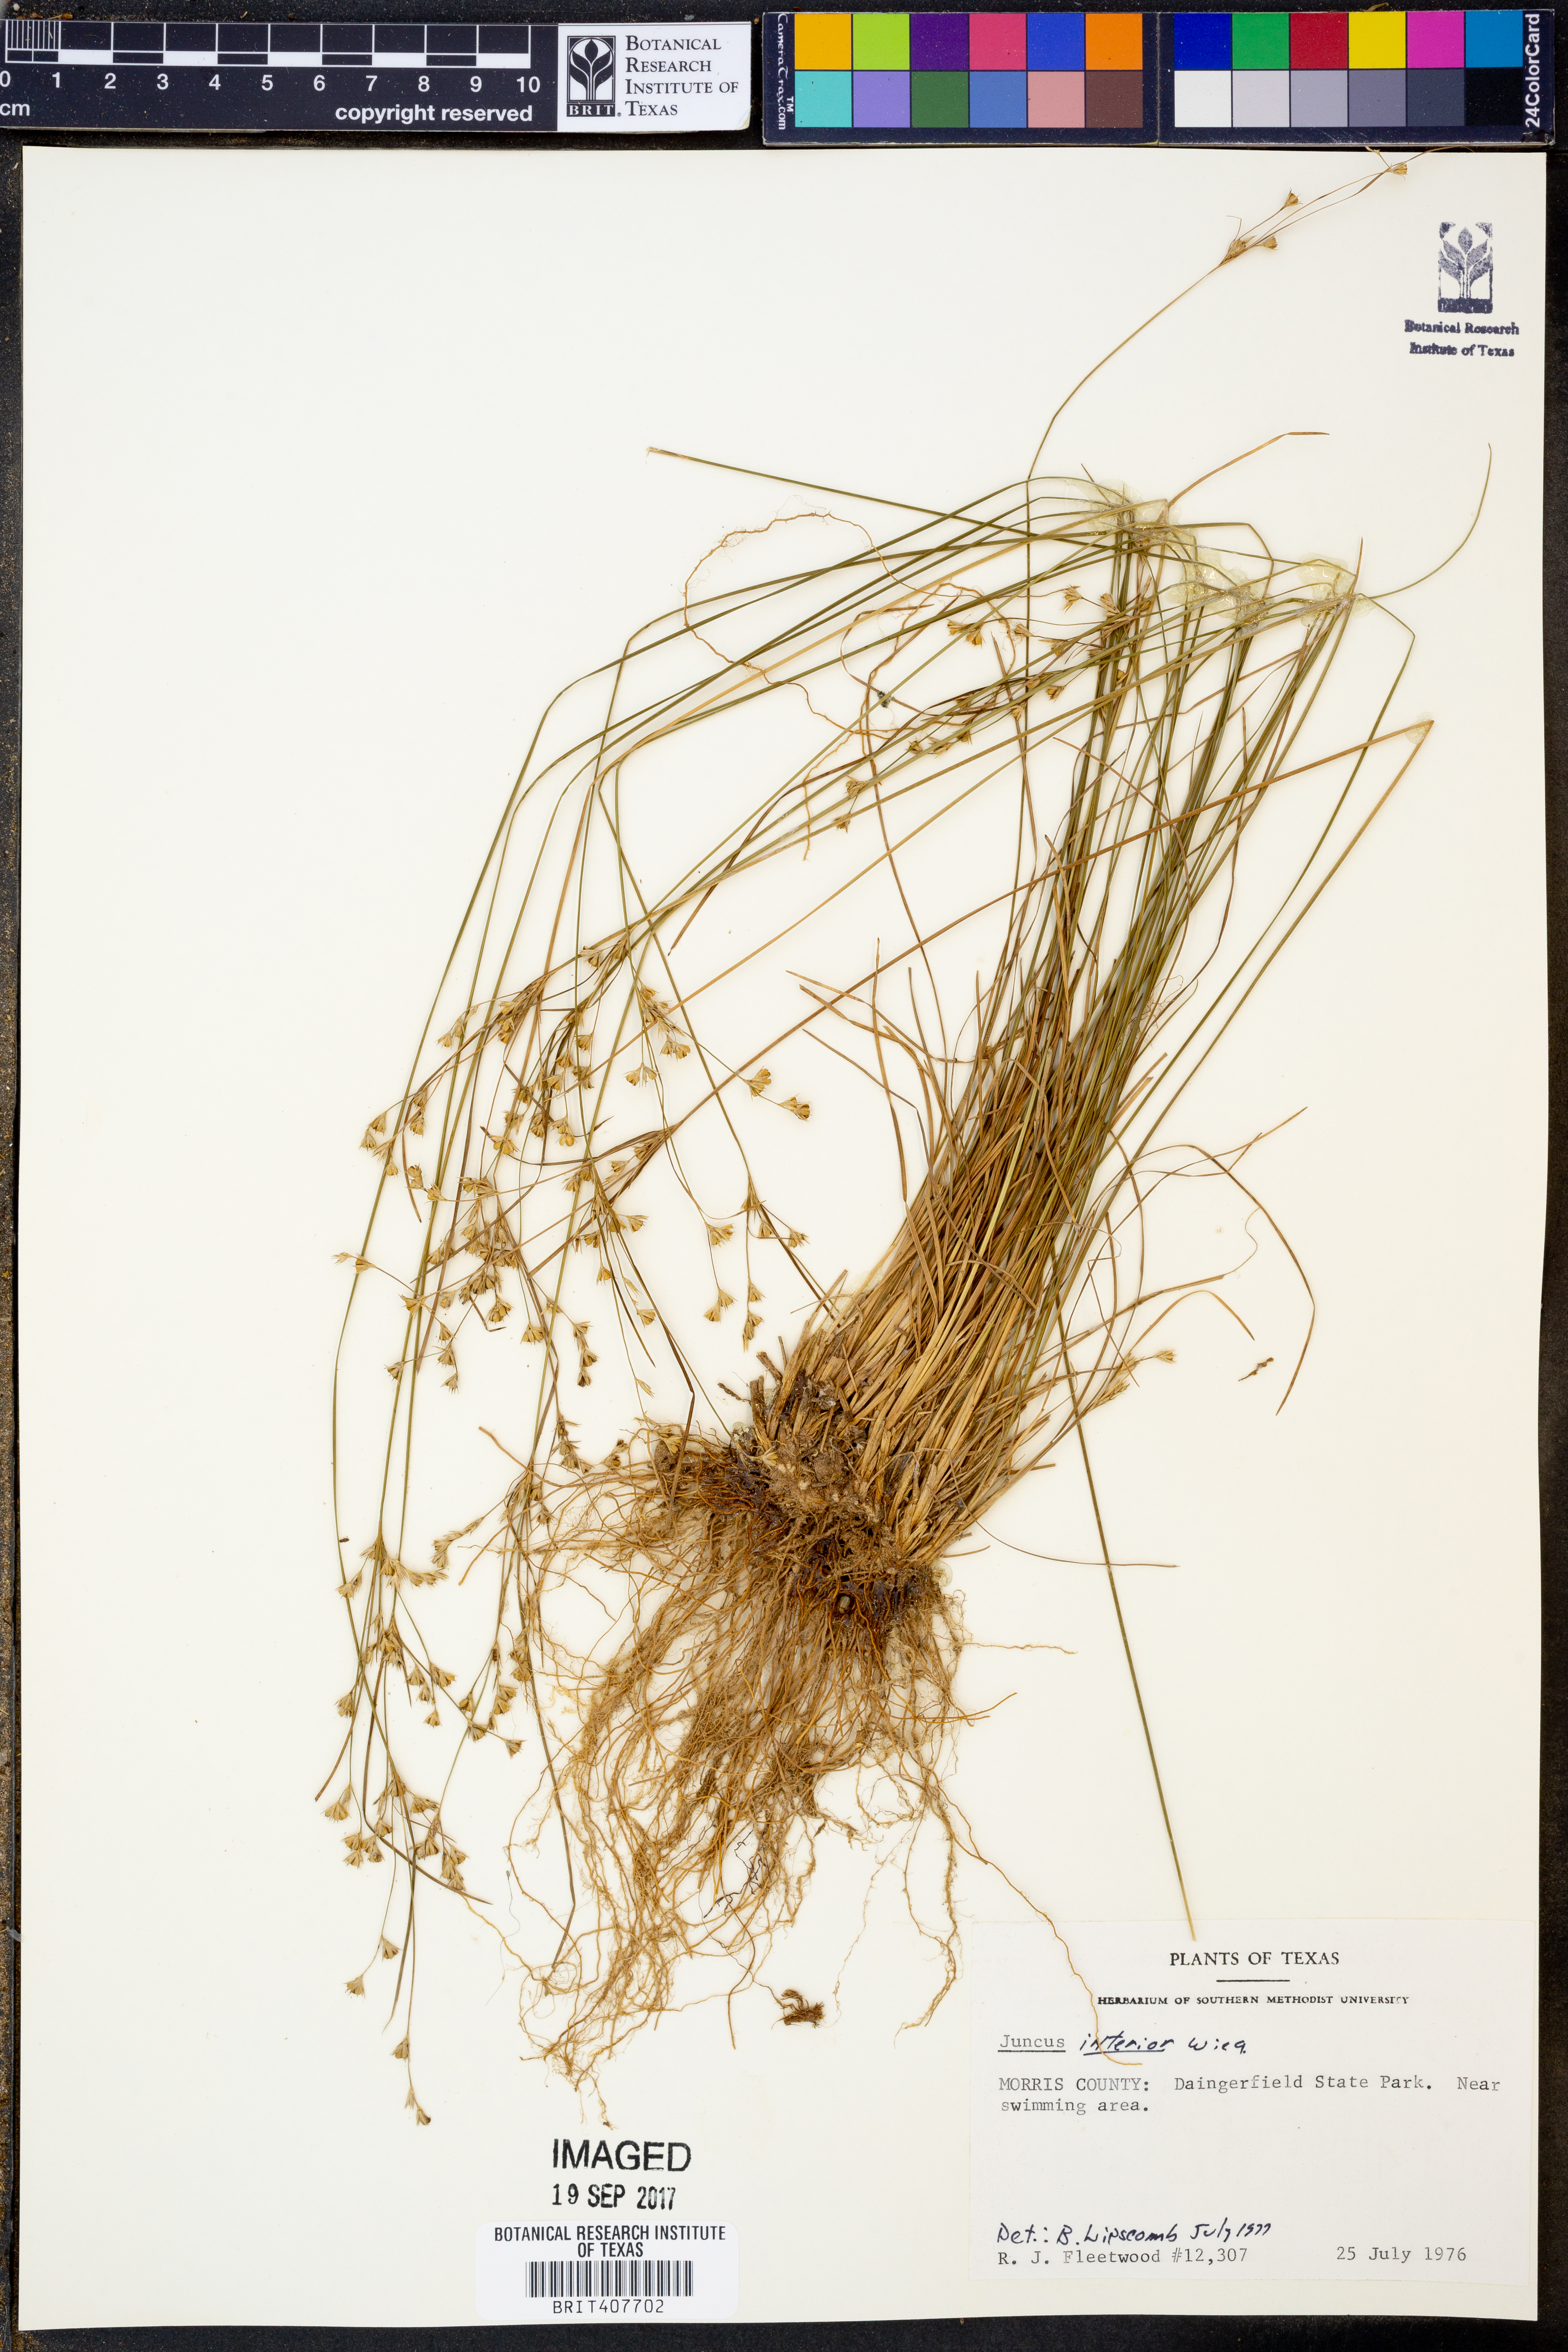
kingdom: Plantae
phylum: Tracheophyta
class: Liliopsida
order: Poales
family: Juncaceae
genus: Juncus
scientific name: Juncus interior
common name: Interior rush
